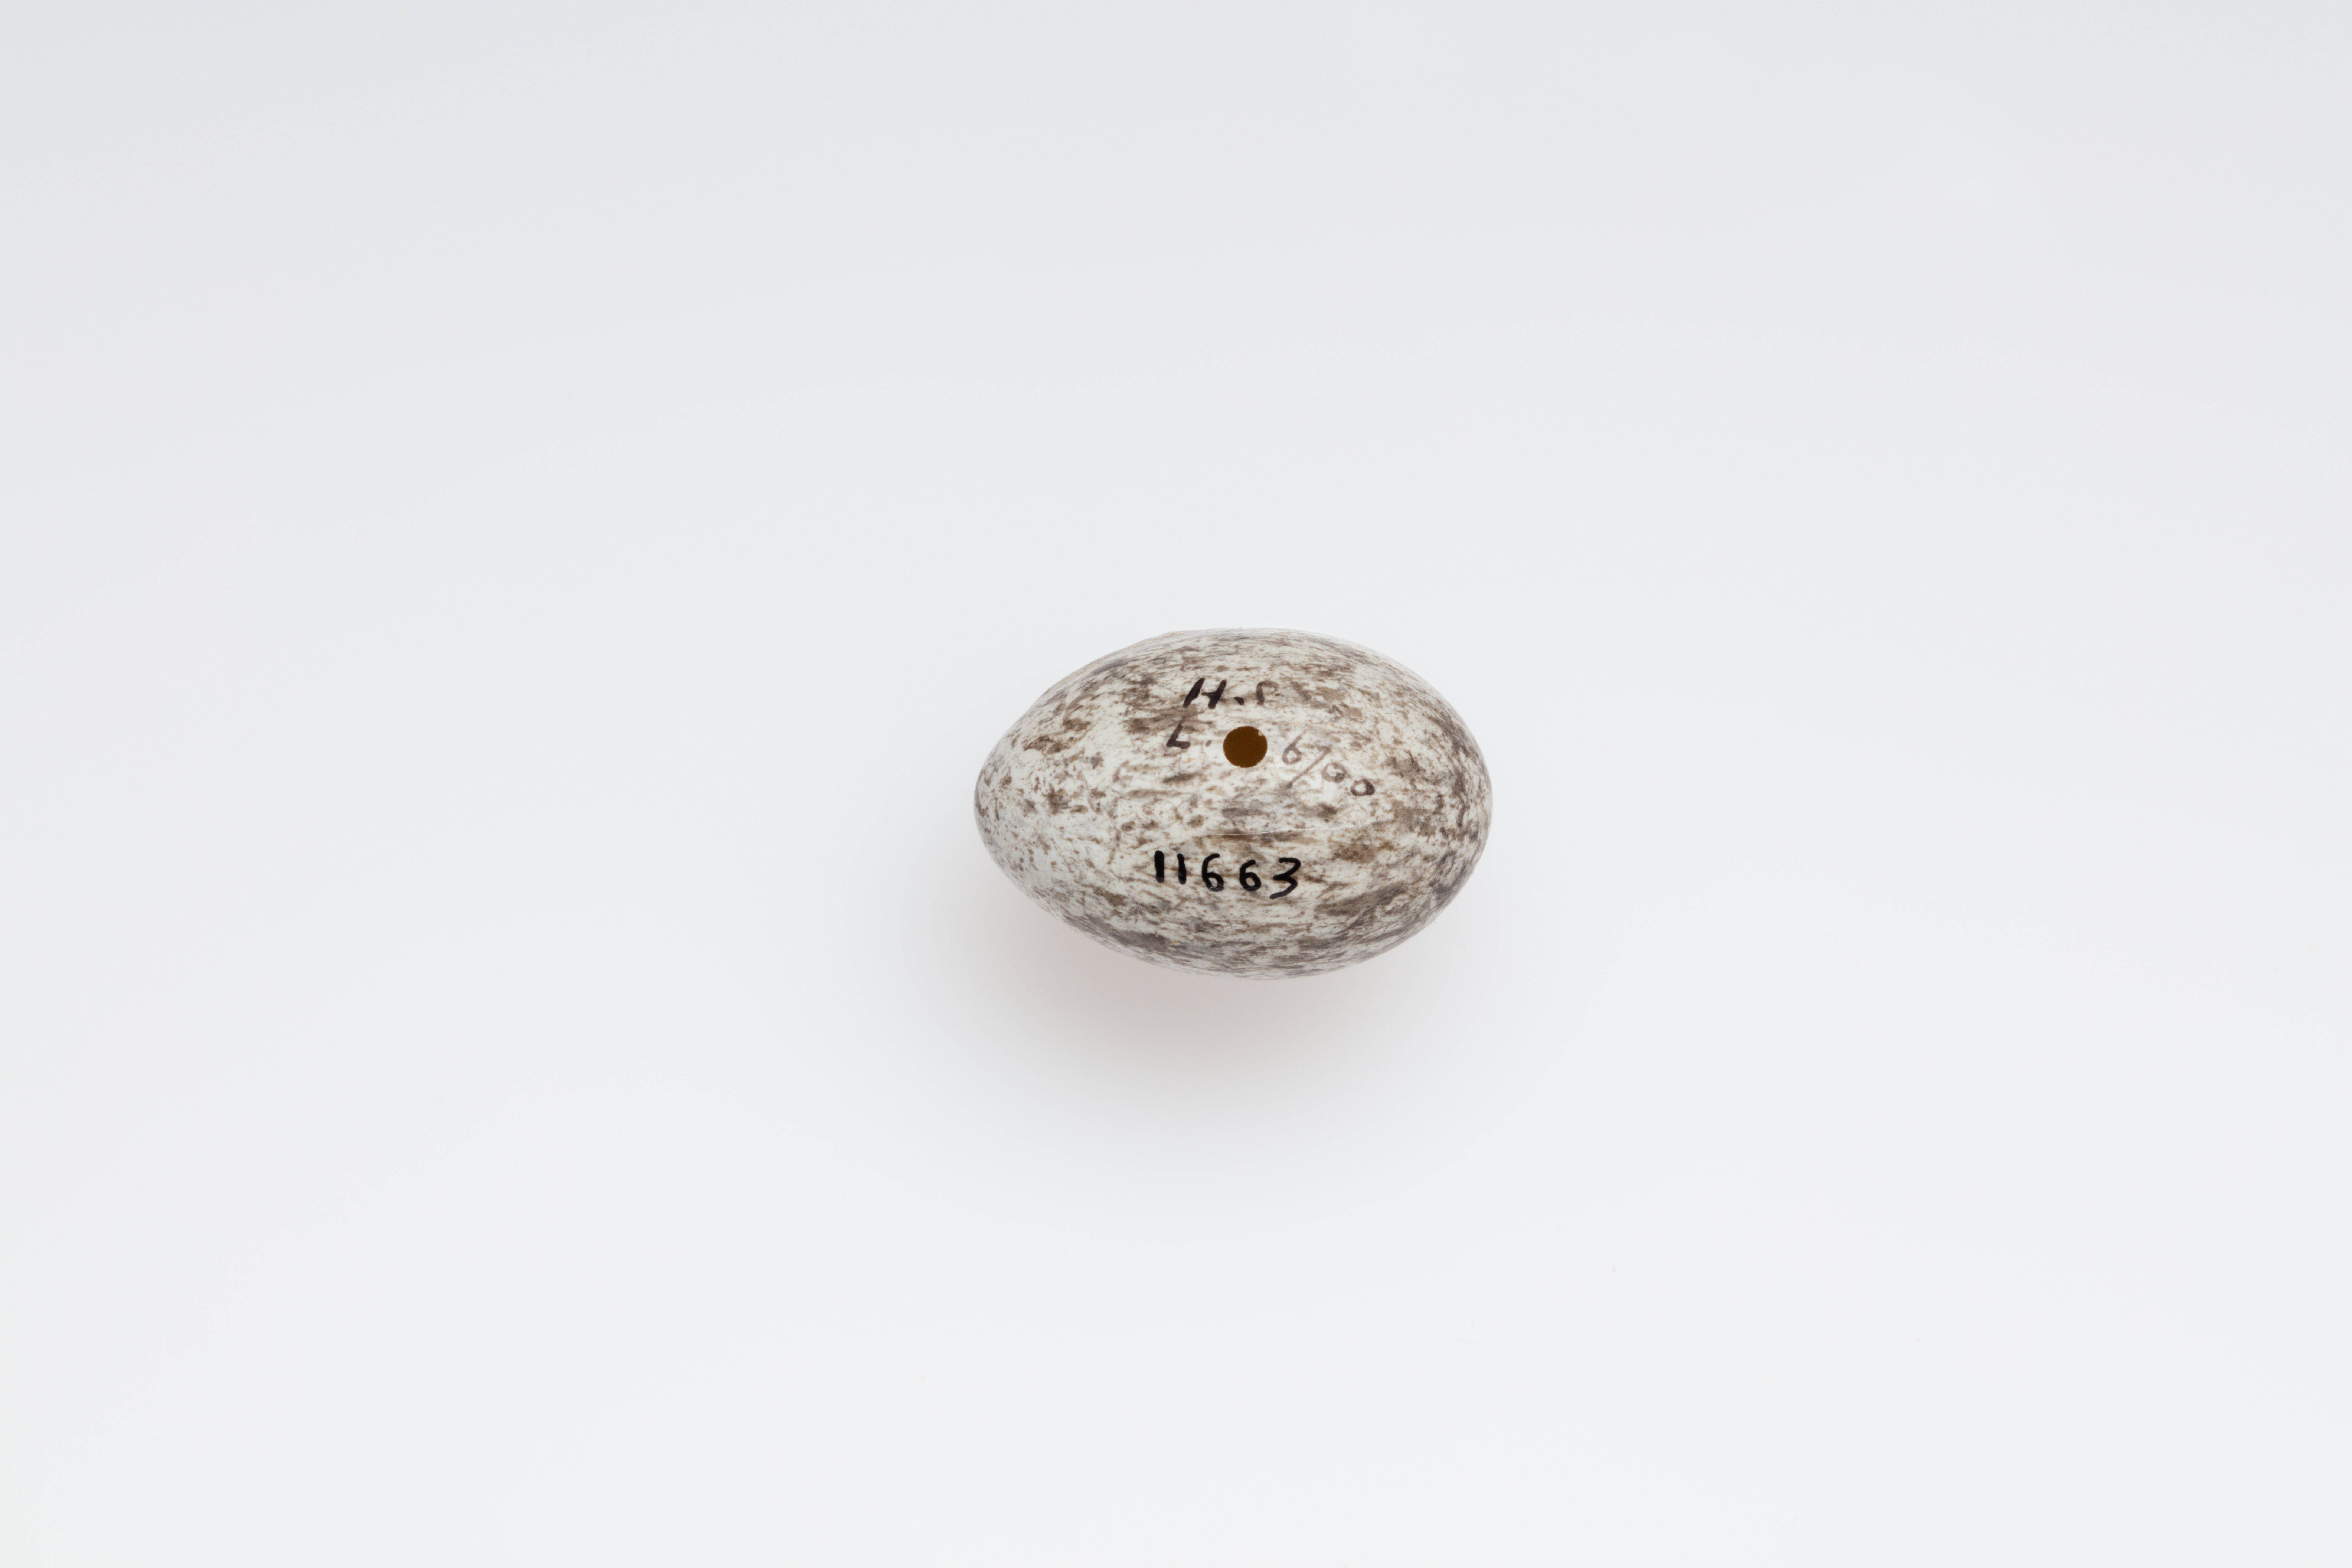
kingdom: Animalia
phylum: Chordata
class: Aves
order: Passeriformes
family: Passeridae
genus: Passer
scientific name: Passer domesticus
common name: House sparrow
